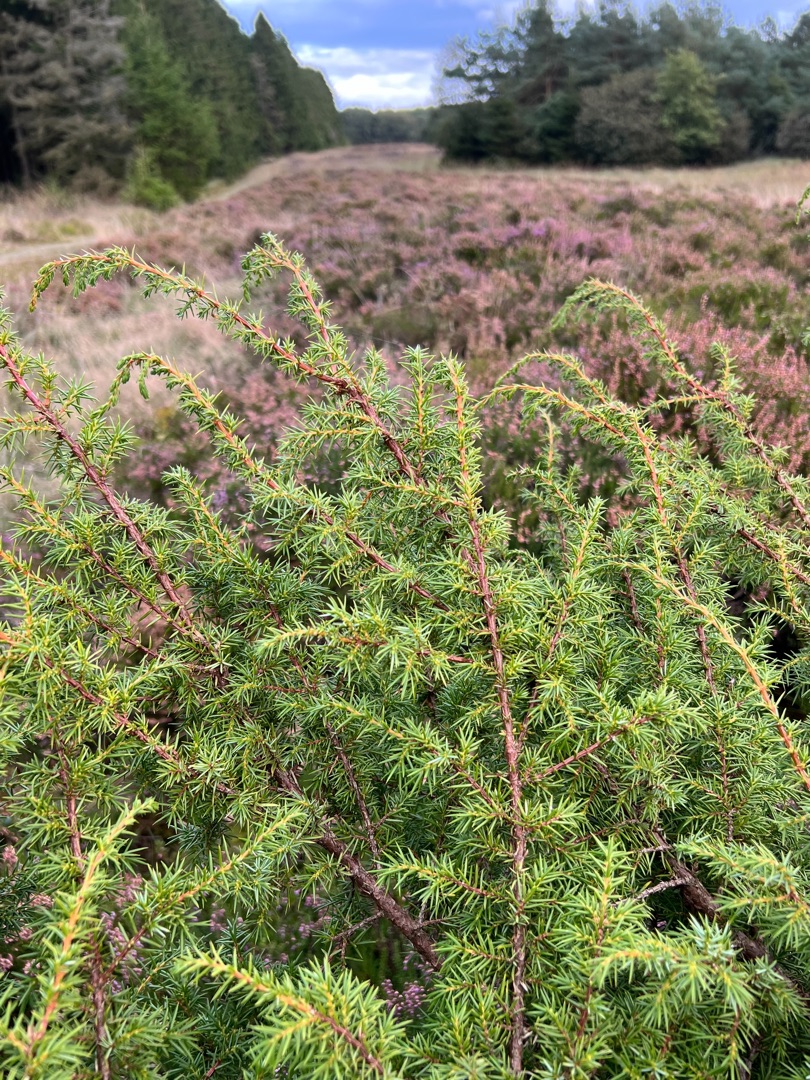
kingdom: Plantae
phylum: Tracheophyta
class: Pinopsida
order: Pinales
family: Cupressaceae
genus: Juniperus
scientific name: Juniperus communis
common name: Almindelig ene
